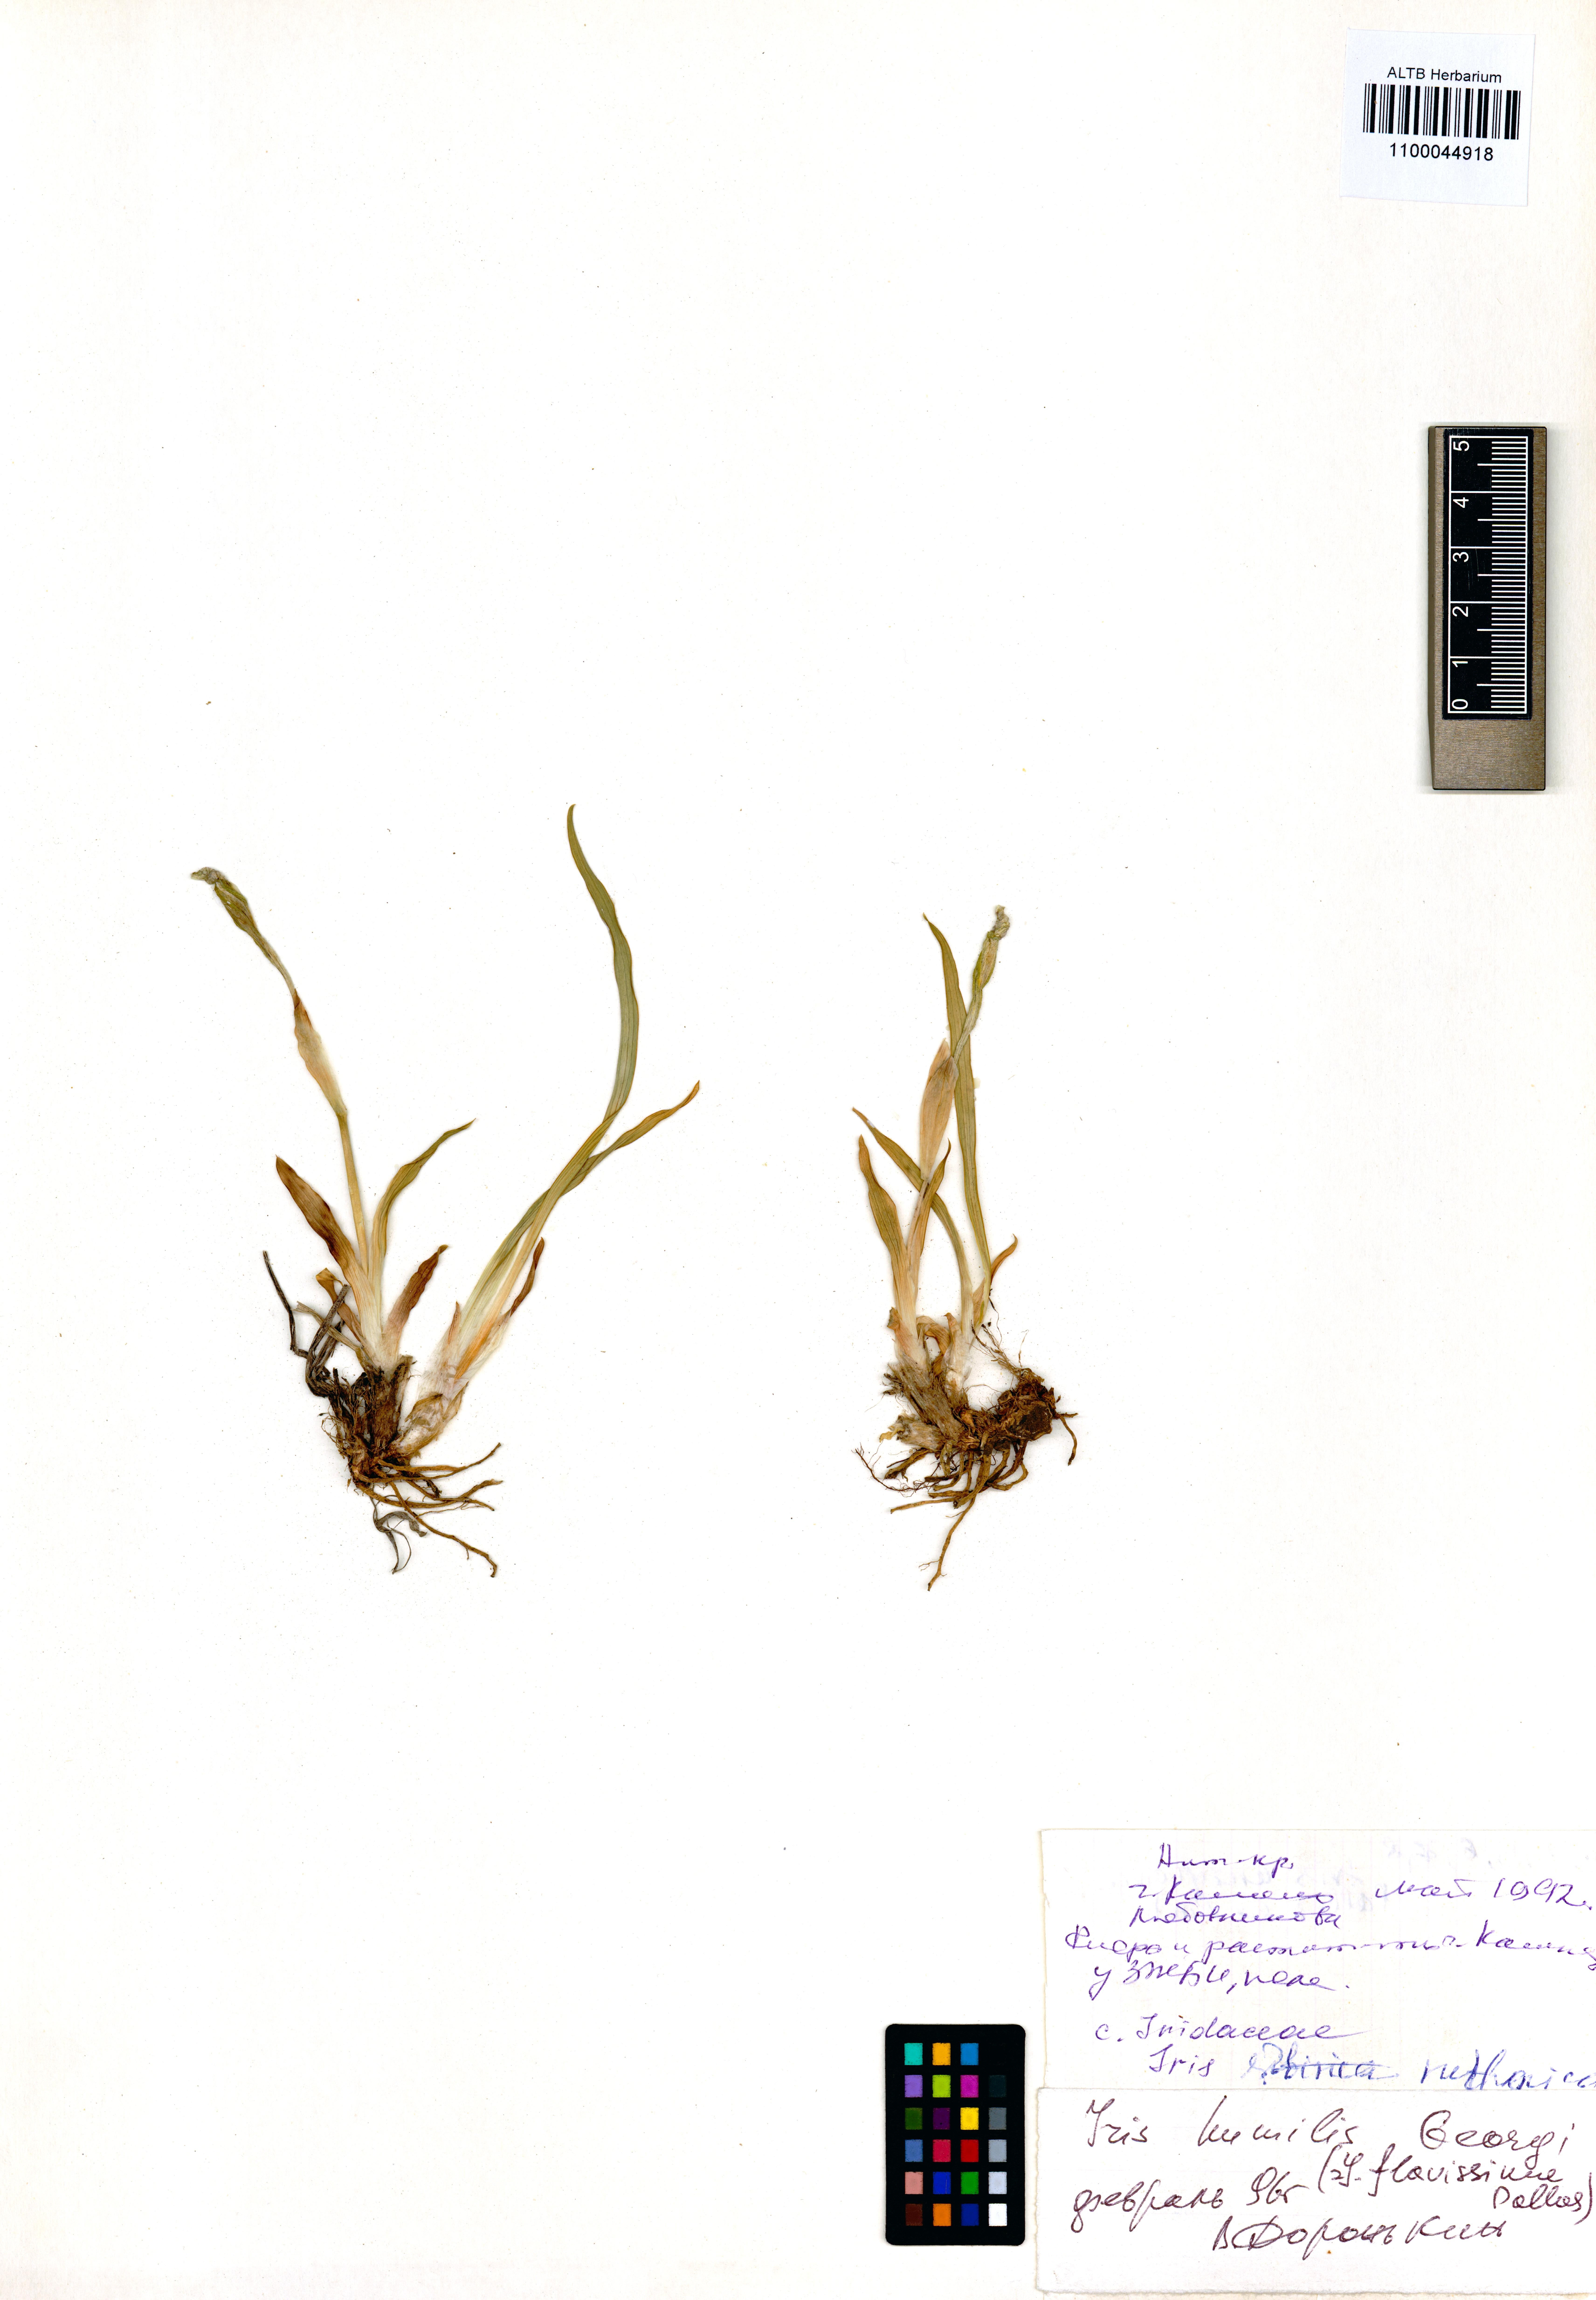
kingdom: Plantae
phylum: Tracheophyta
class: Liliopsida
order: Asparagales
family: Iridaceae
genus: Iris
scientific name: Iris humilis
